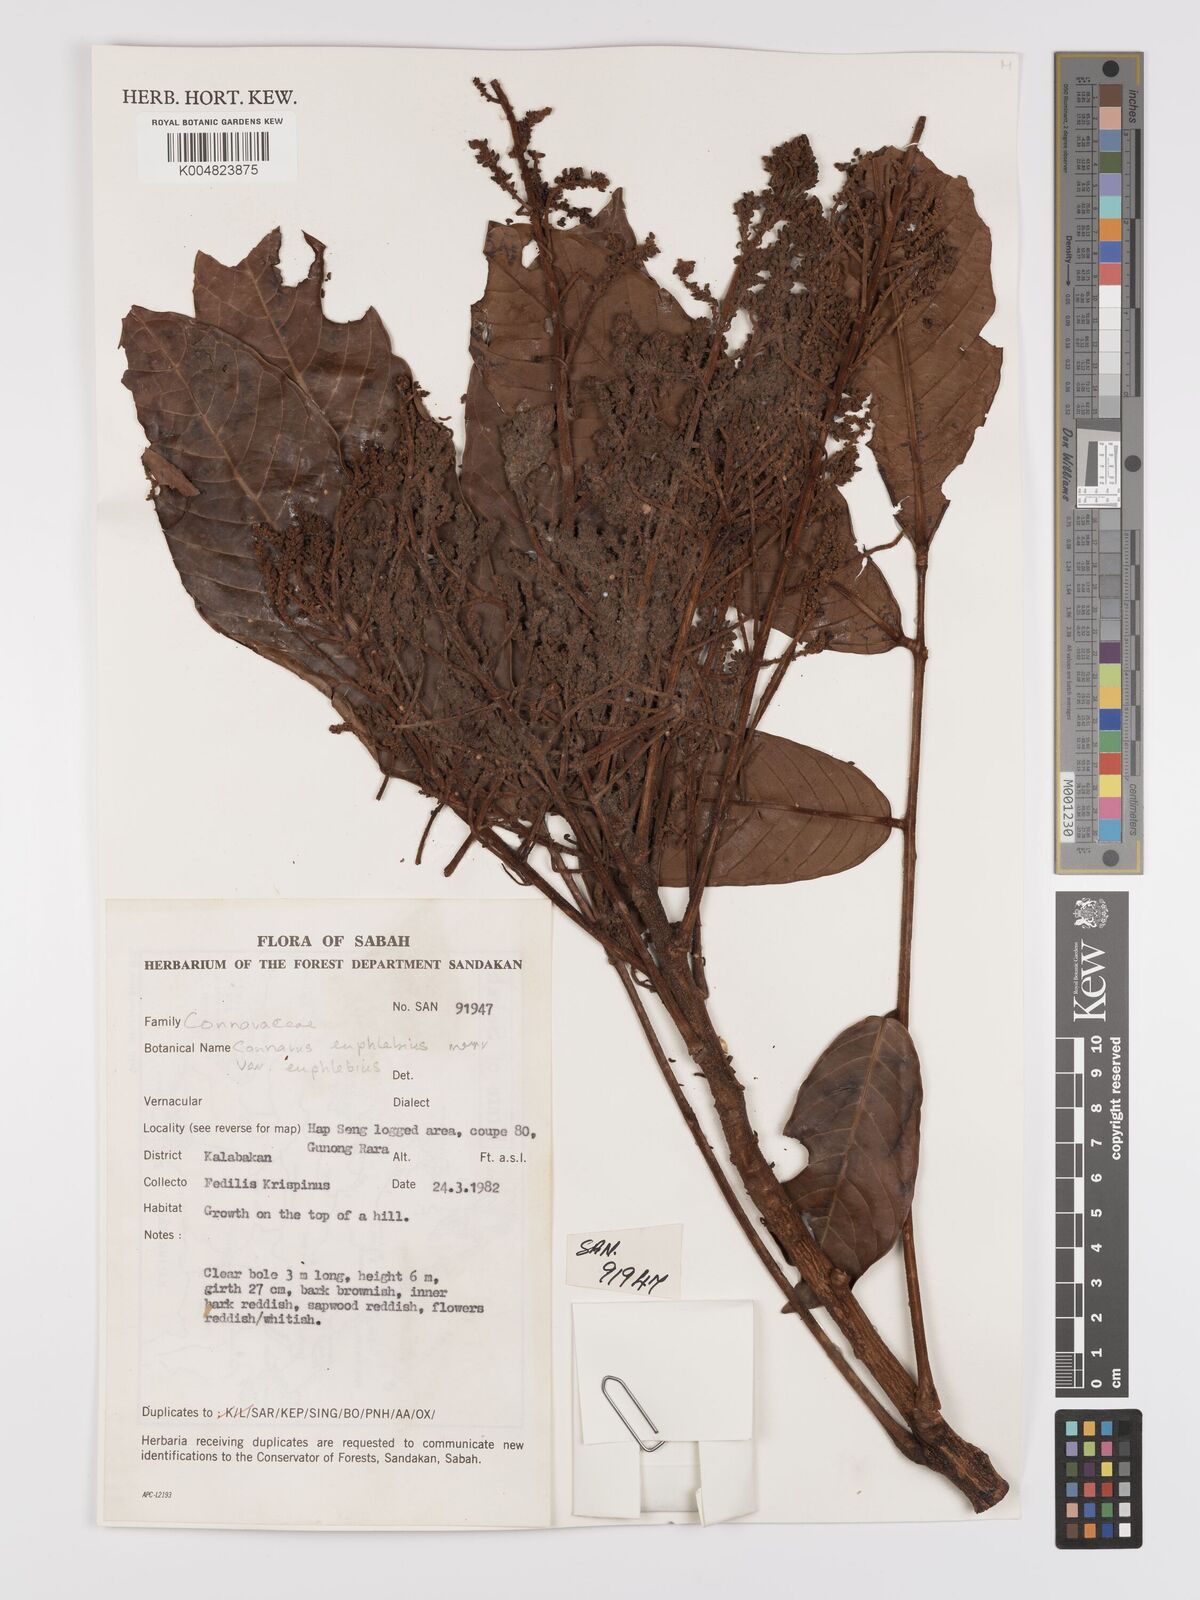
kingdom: Plantae
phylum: Tracheophyta
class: Magnoliopsida
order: Oxalidales
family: Connaraceae
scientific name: Connaraceae
